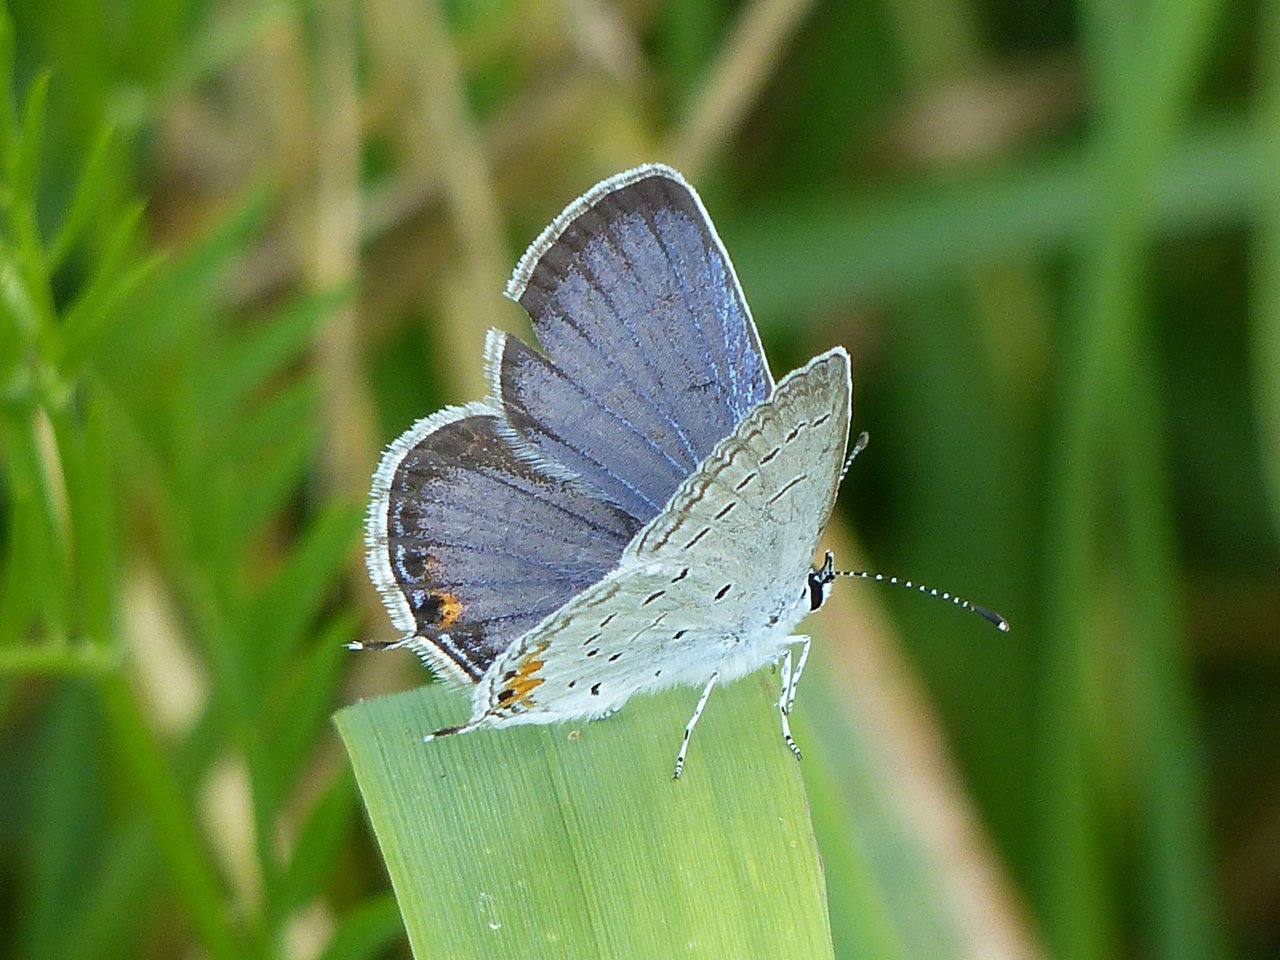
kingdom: Animalia
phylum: Arthropoda
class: Insecta
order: Lepidoptera
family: Lycaenidae
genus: Elkalyce
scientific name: Elkalyce comyntas
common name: Eastern Tailed-Blue
